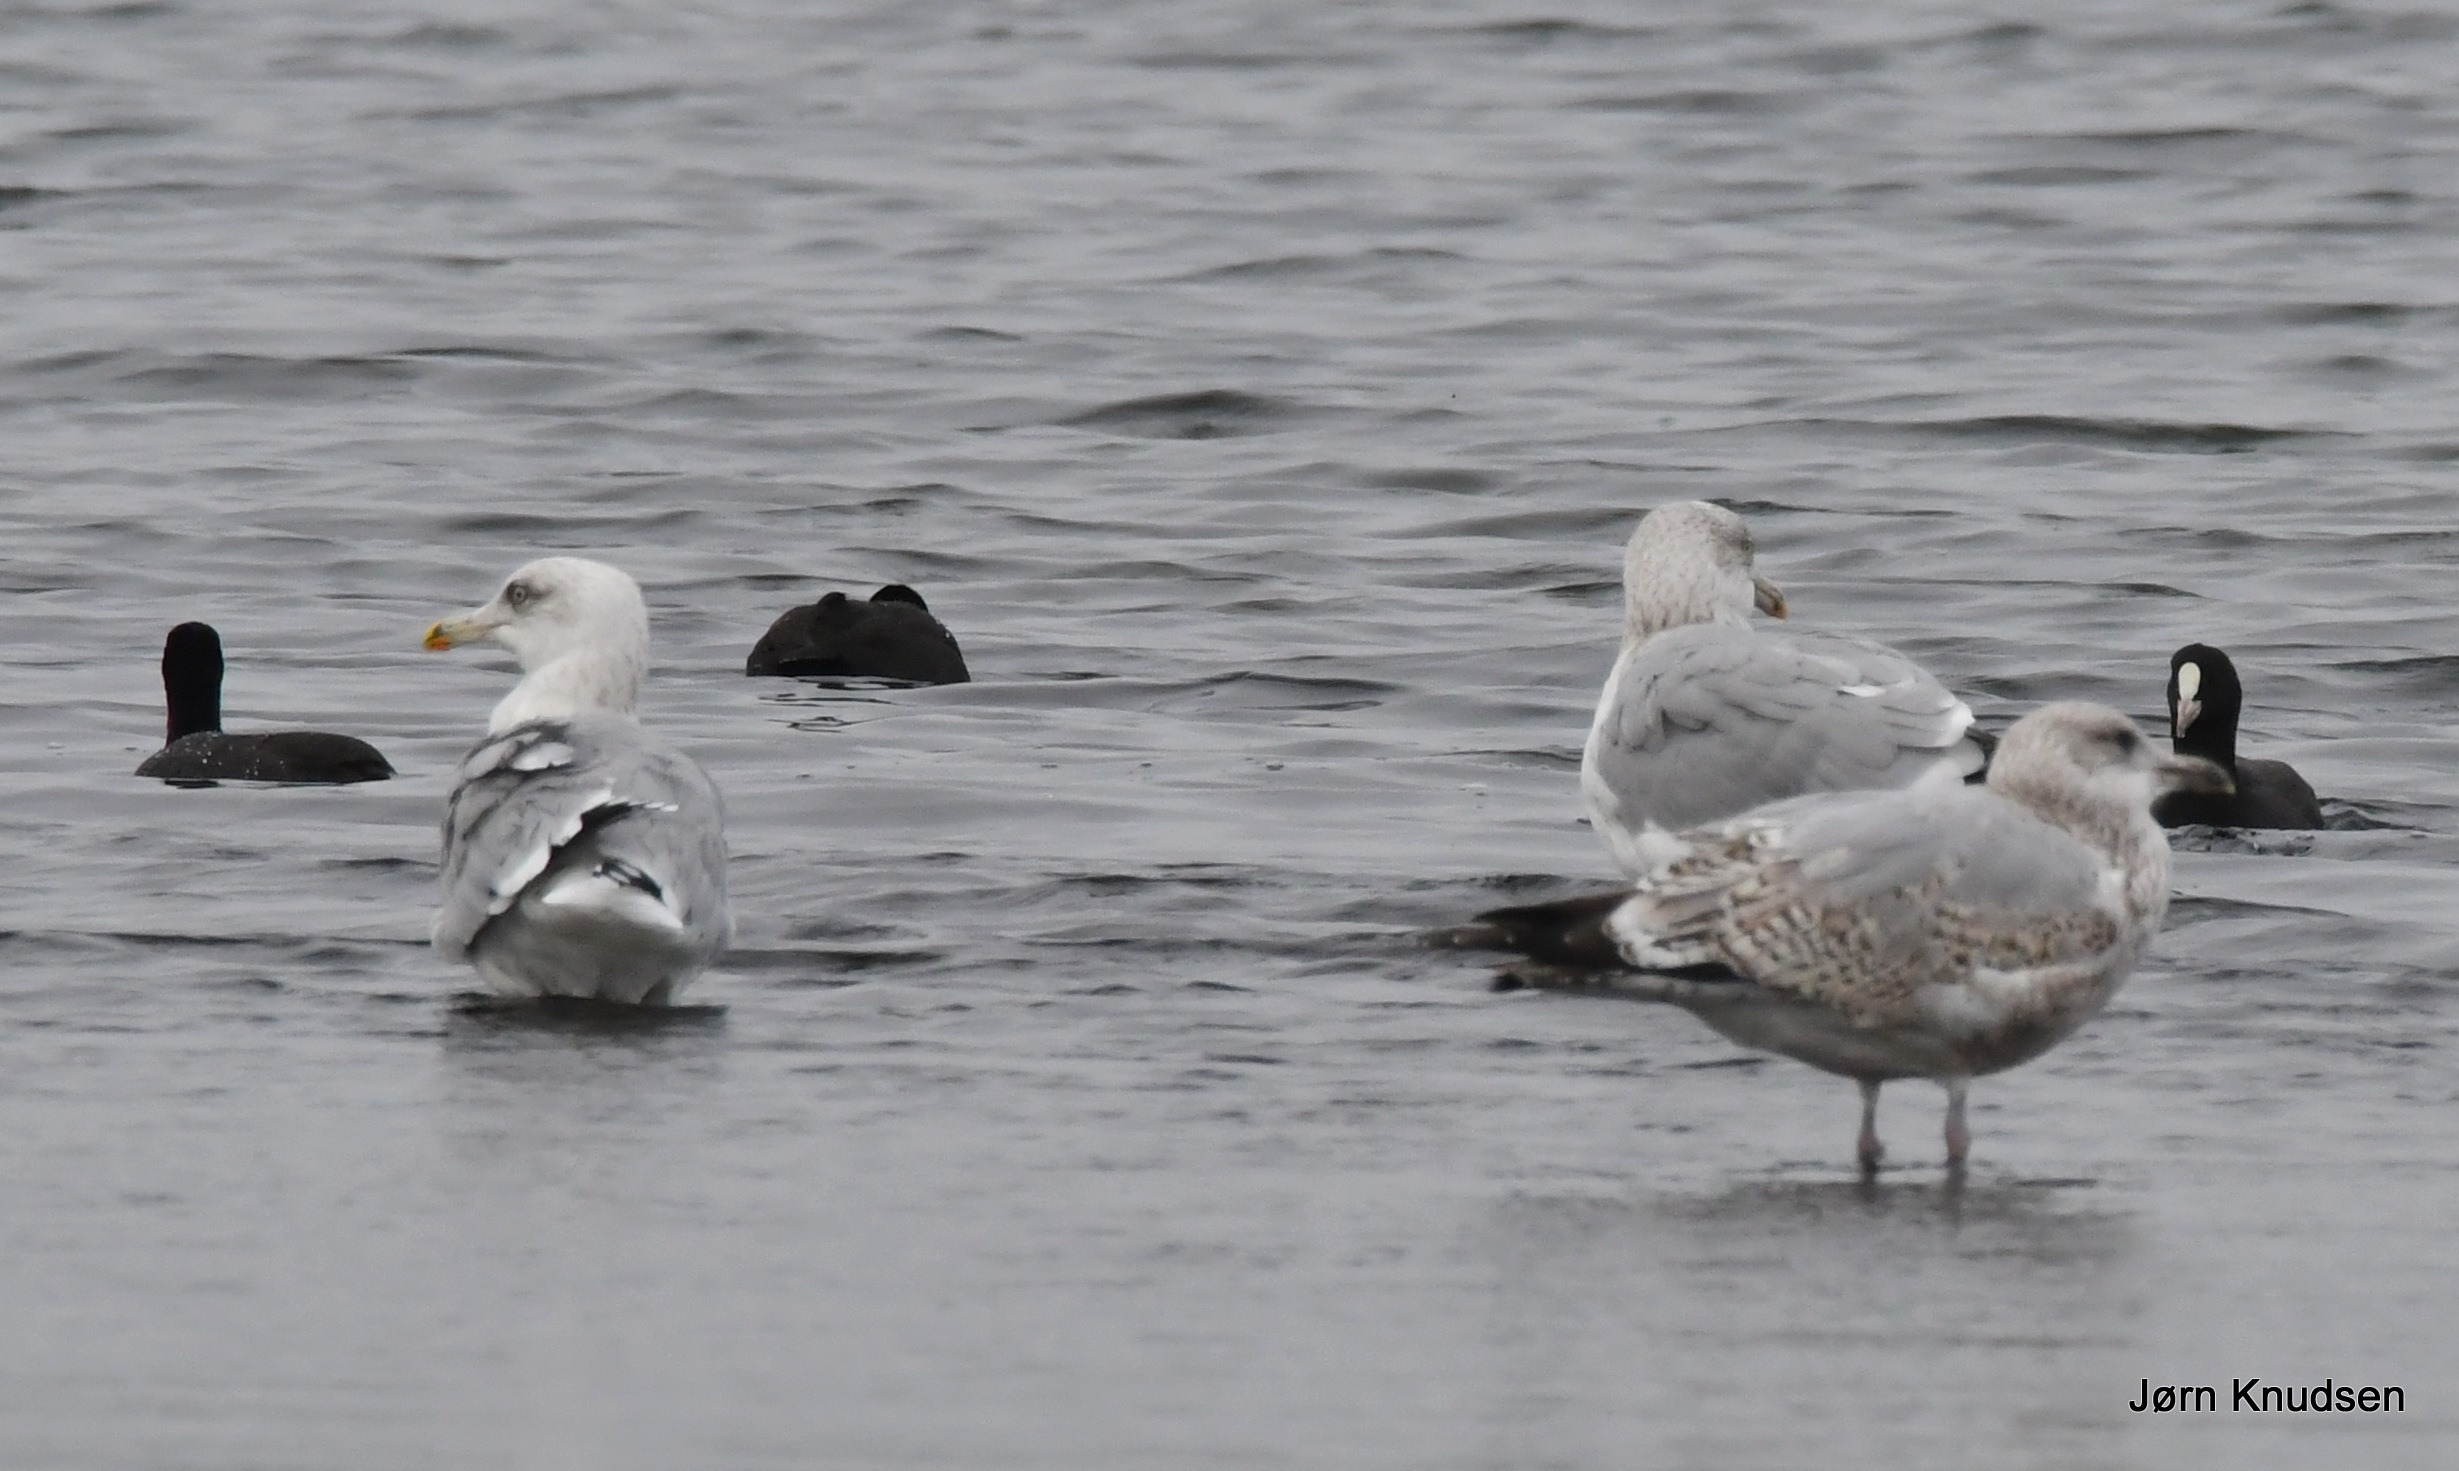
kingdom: Animalia
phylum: Chordata
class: Aves
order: Charadriiformes
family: Laridae
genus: Larus
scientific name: Larus argentatus
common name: Sølvmåge
